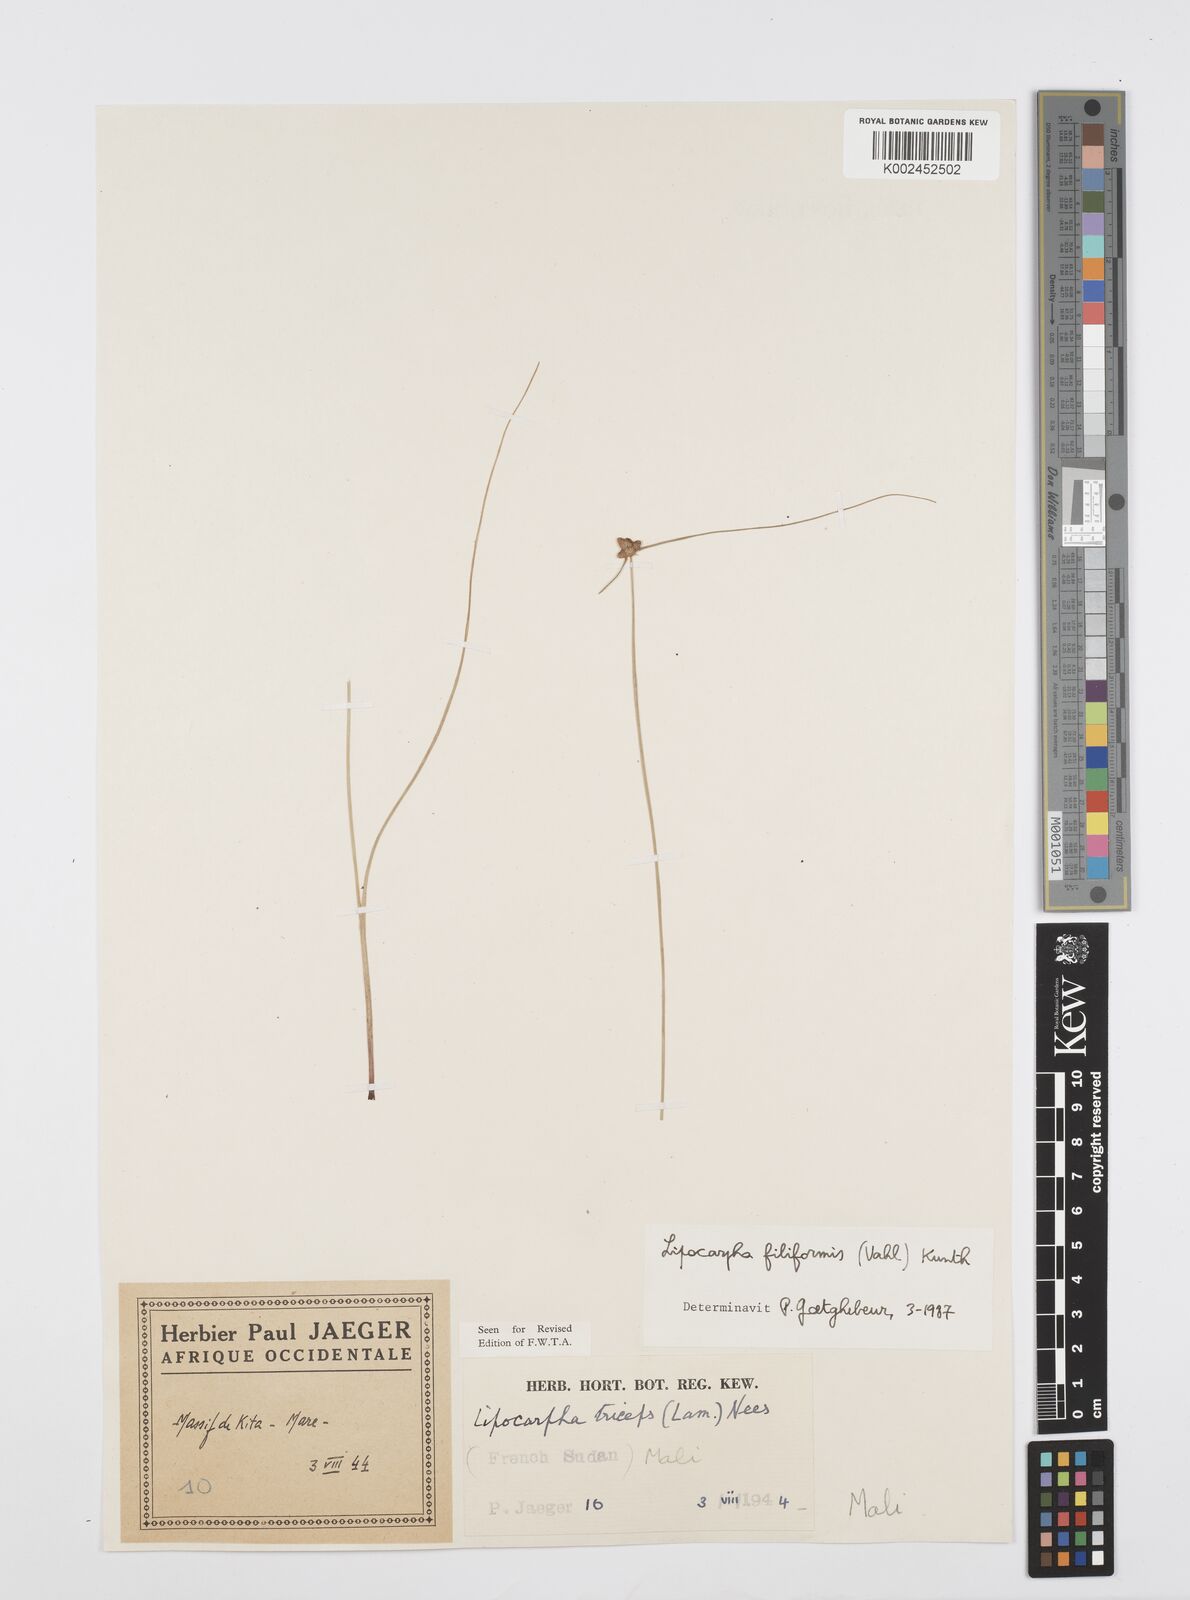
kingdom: Plantae
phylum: Tracheophyta
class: Liliopsida
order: Poales
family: Cyperaceae
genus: Cyperus
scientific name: Cyperus filiformis
